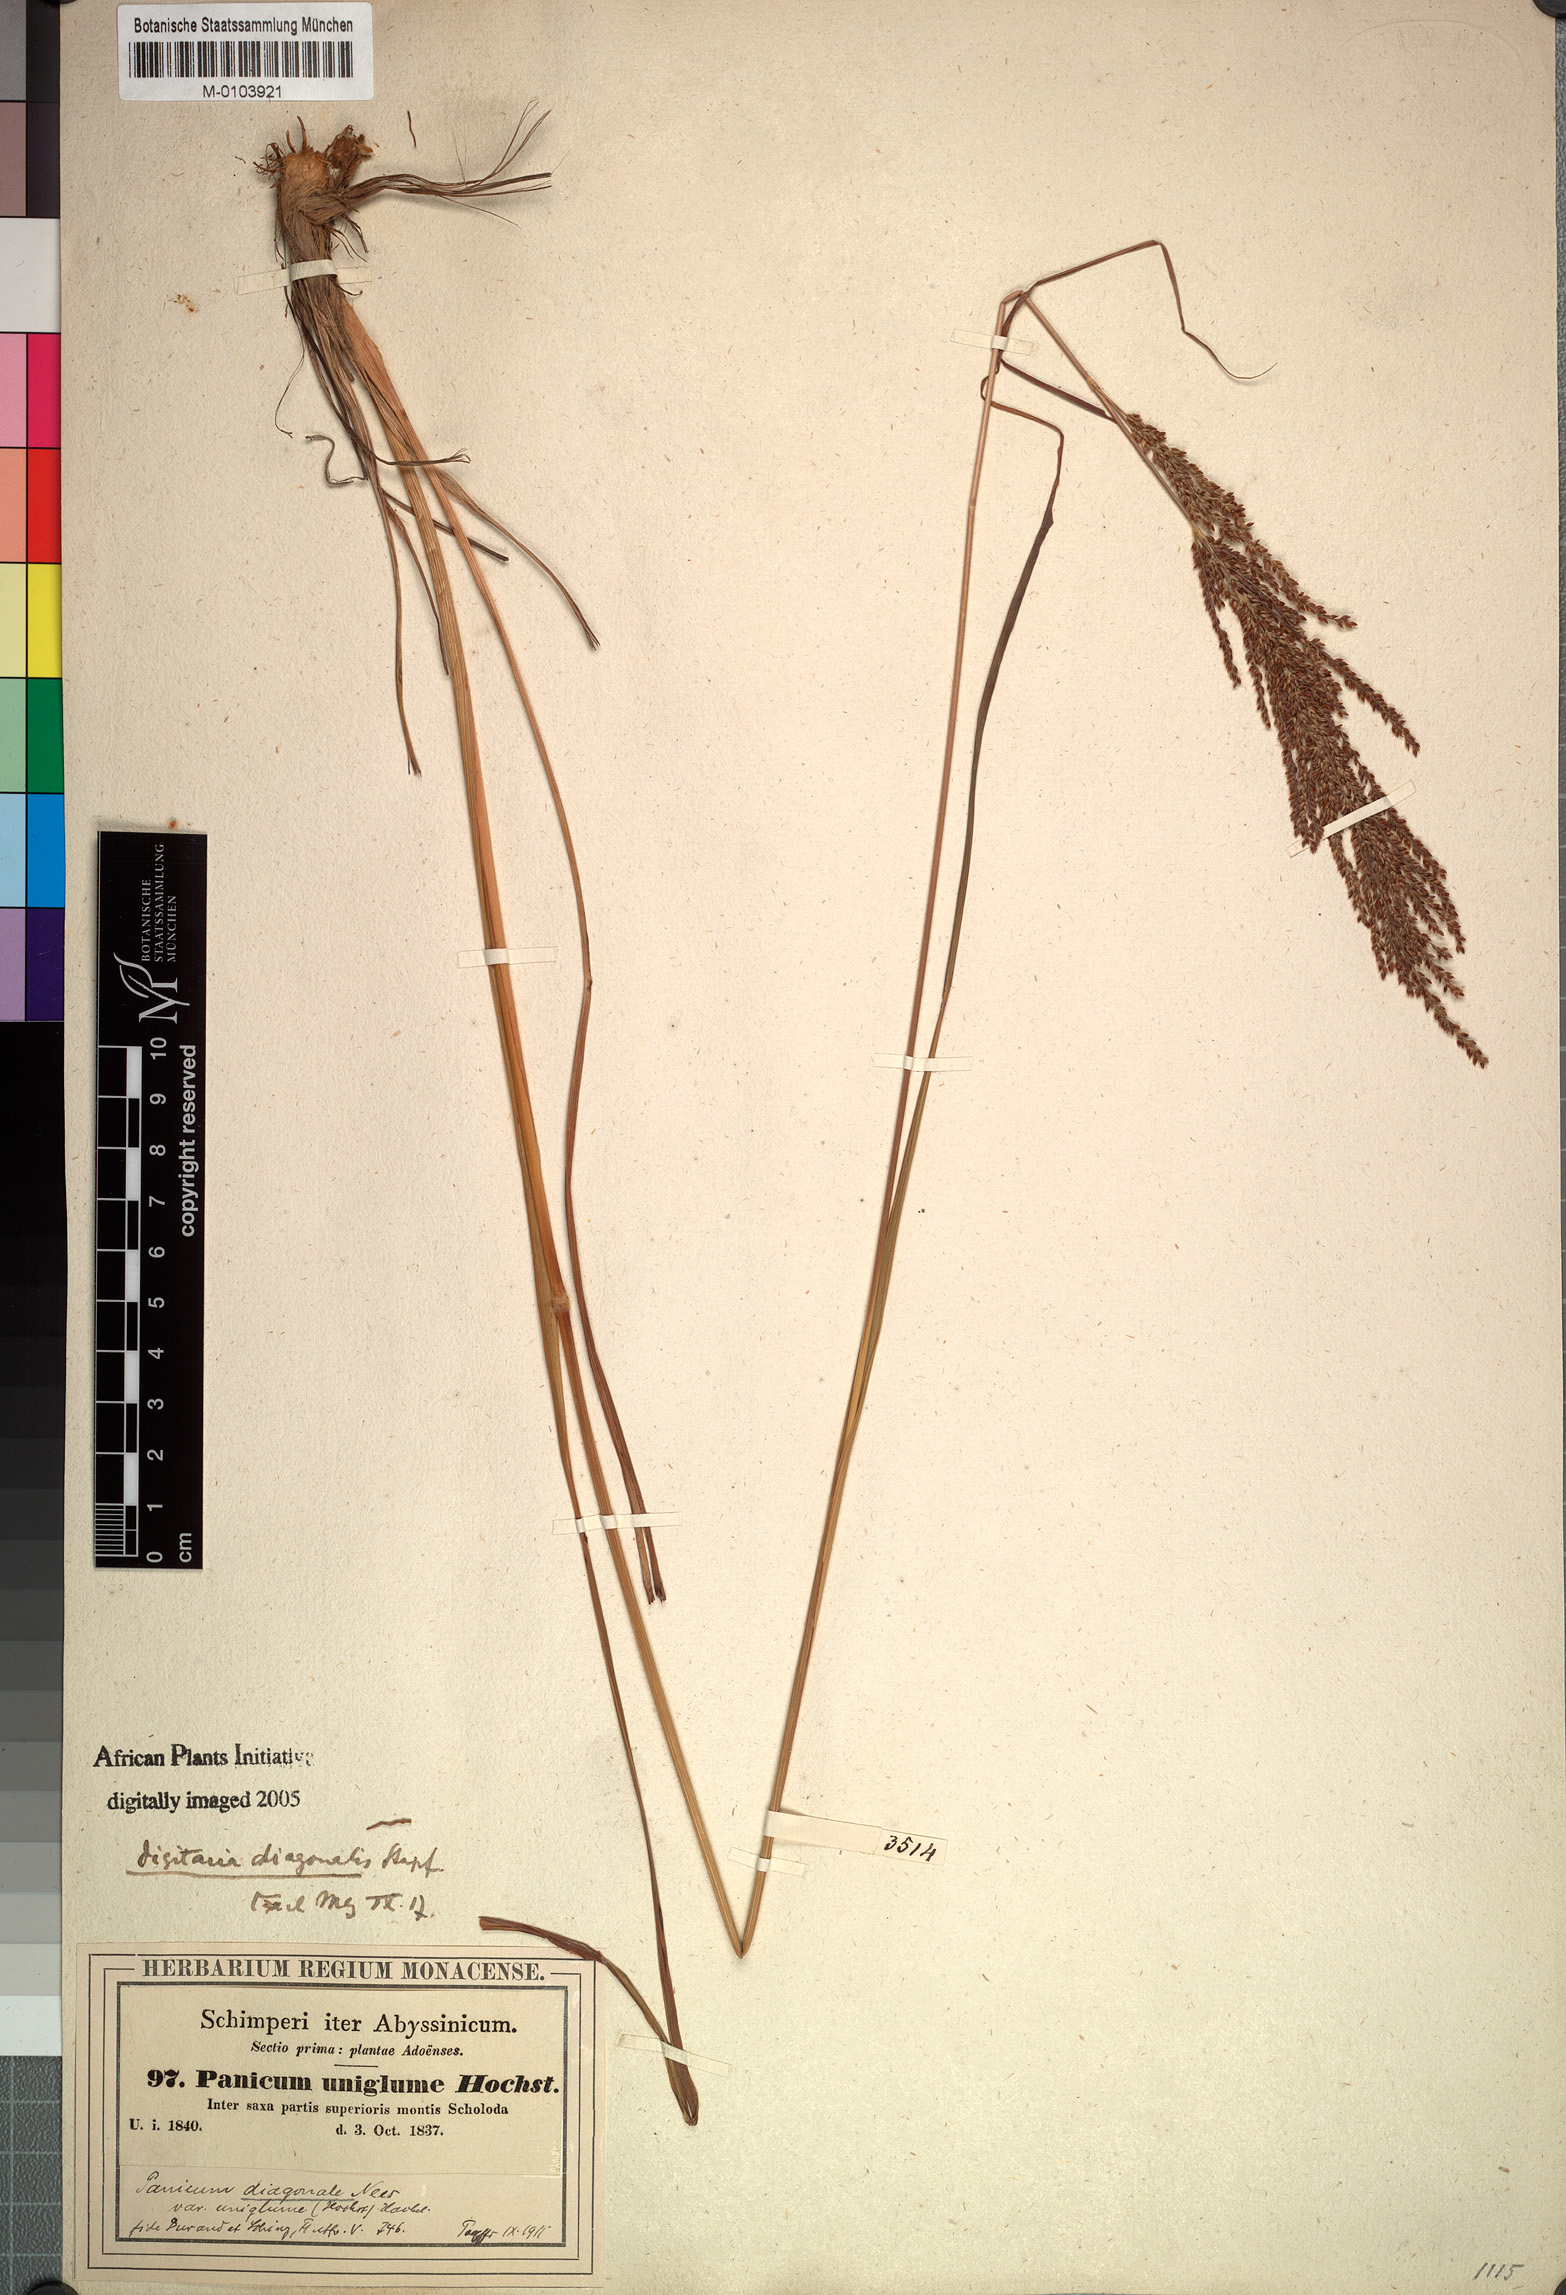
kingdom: Plantae
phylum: Tracheophyta
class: Liliopsida
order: Poales
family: Poaceae
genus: Digitaria
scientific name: Digitaria diagonalis
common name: Brown-seed finger grass
